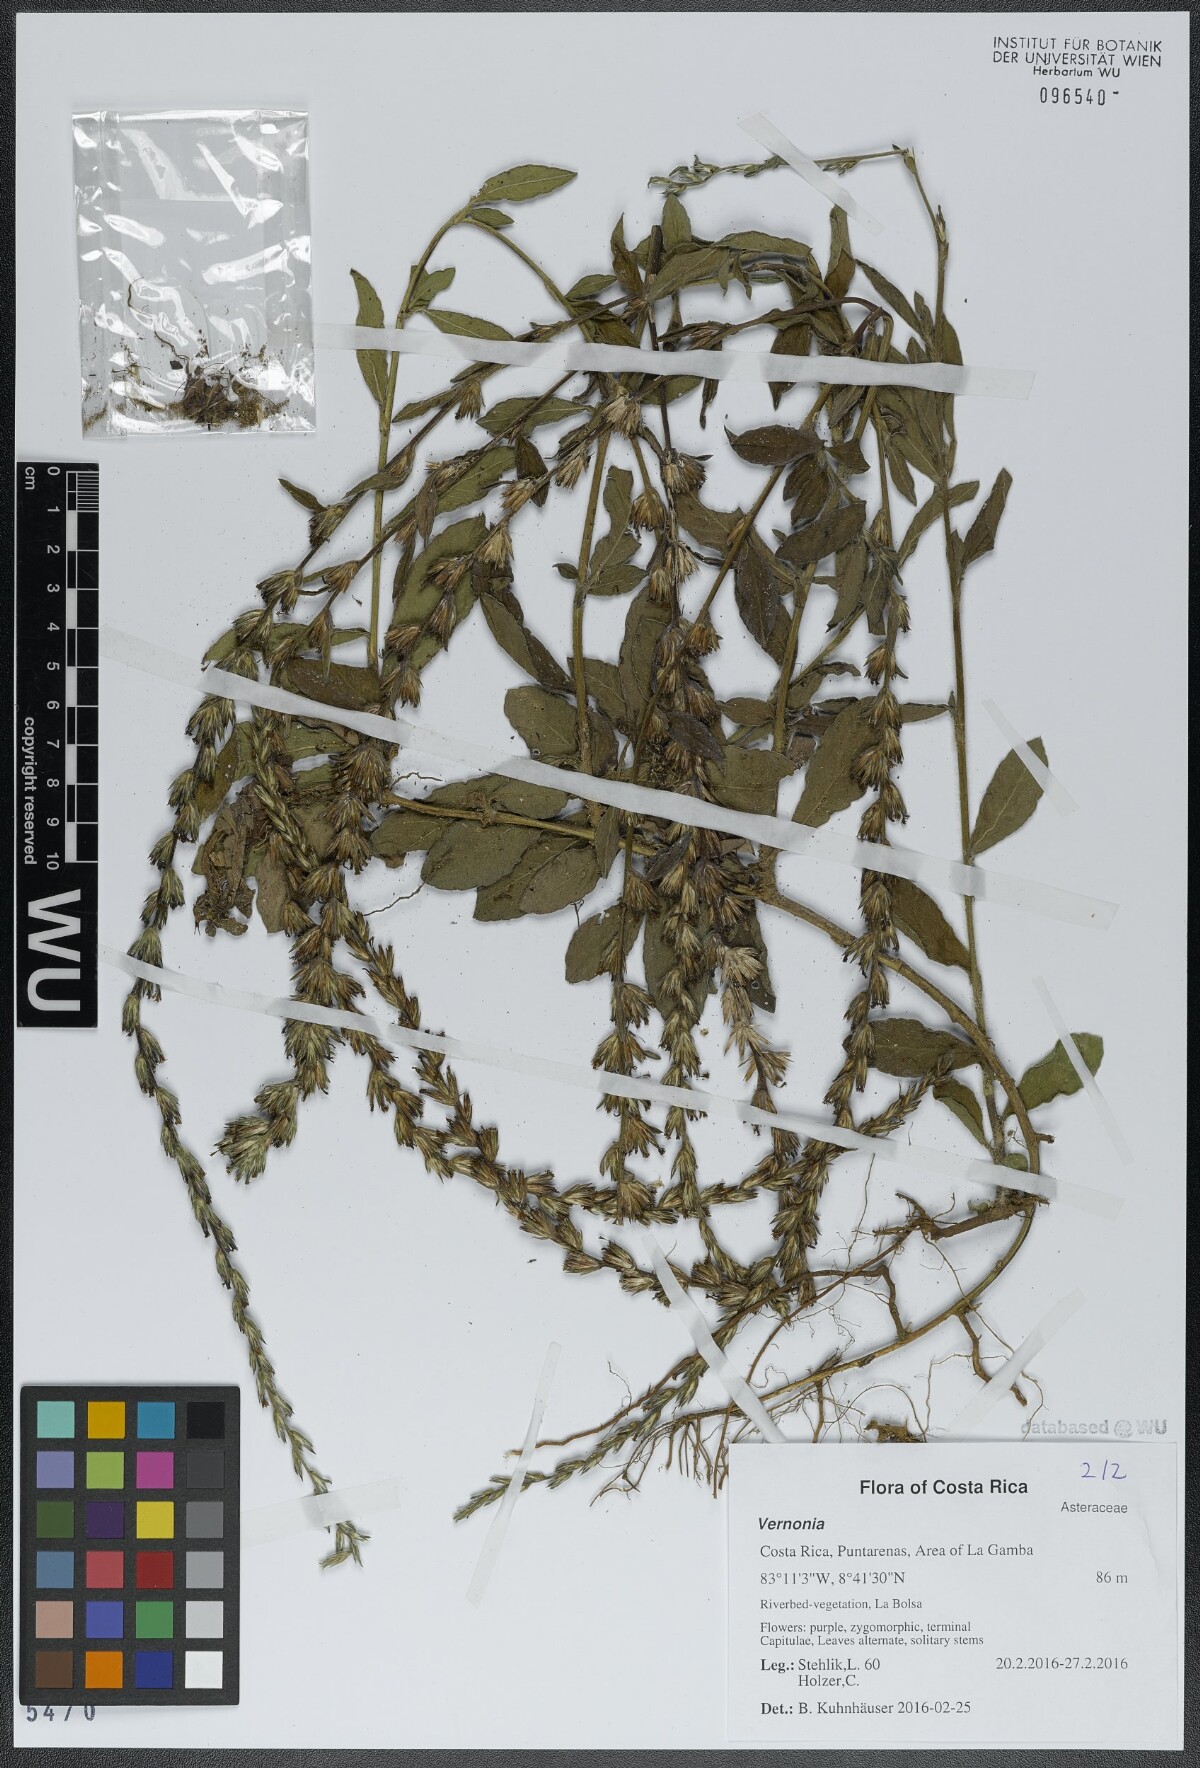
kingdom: Plantae
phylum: Tracheophyta
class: Magnoliopsida
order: Asterales
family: Asteraceae
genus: Vernonia
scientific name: Vernonia
